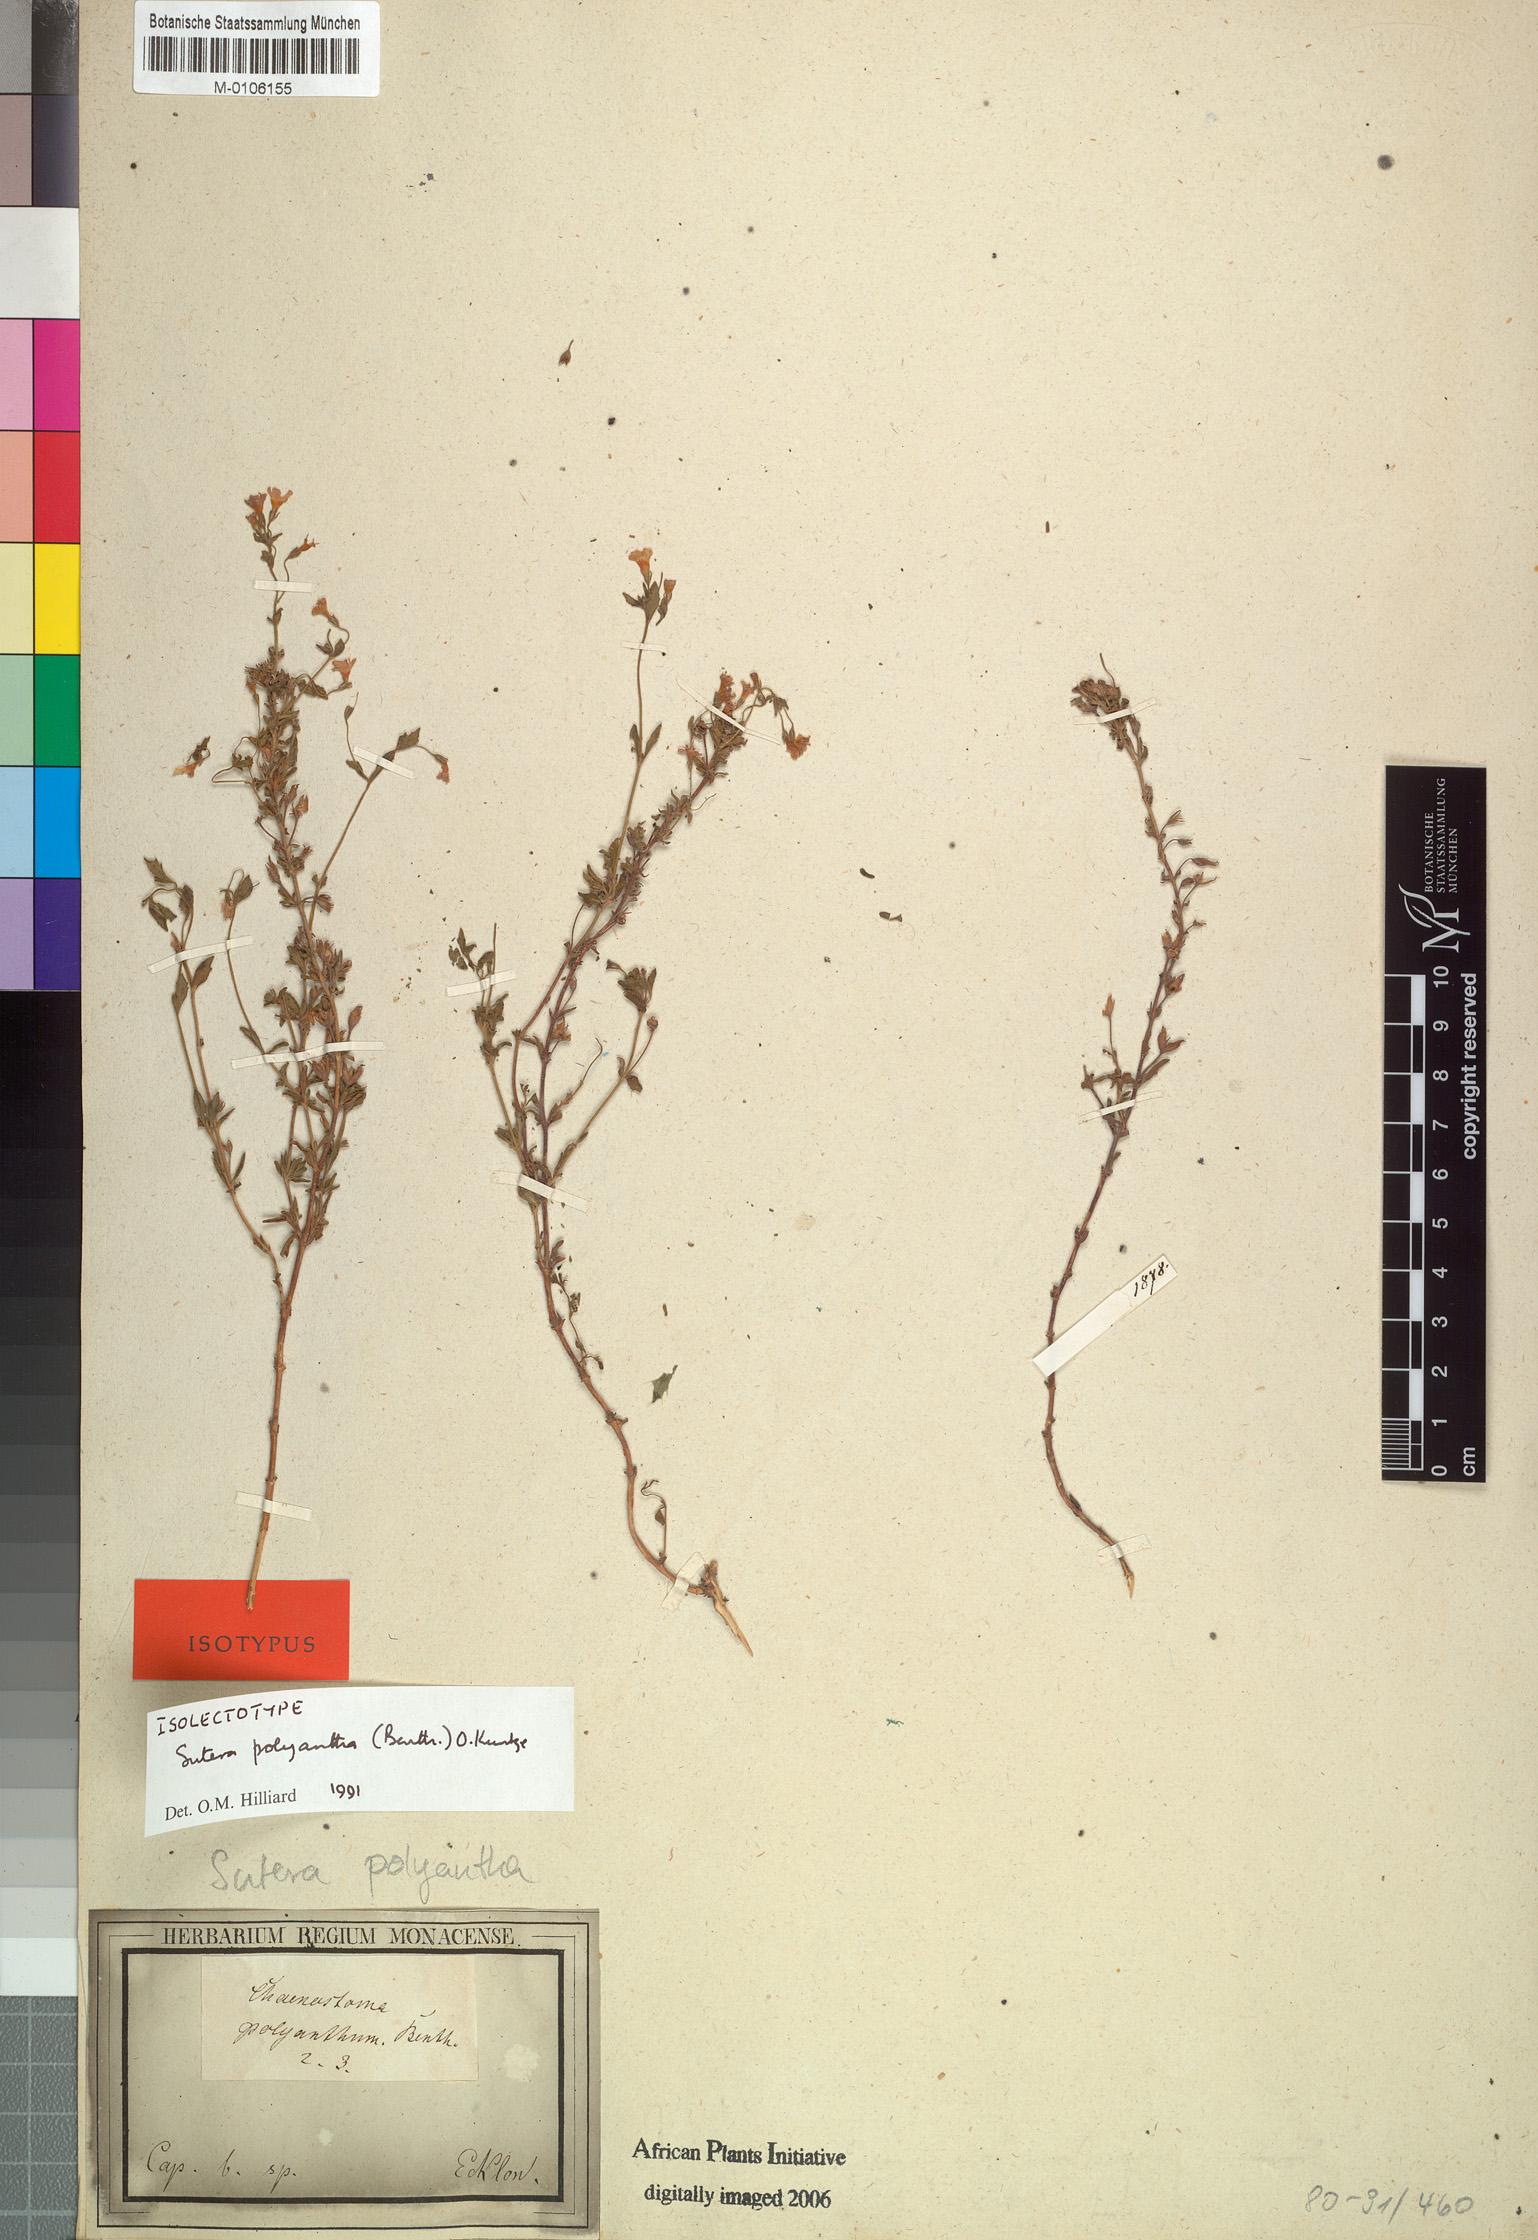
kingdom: Plantae
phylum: Tracheophyta
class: Magnoliopsida
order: Lamiales
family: Scrophulariaceae
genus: Chaenostoma
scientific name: Chaenostoma polyanthum
